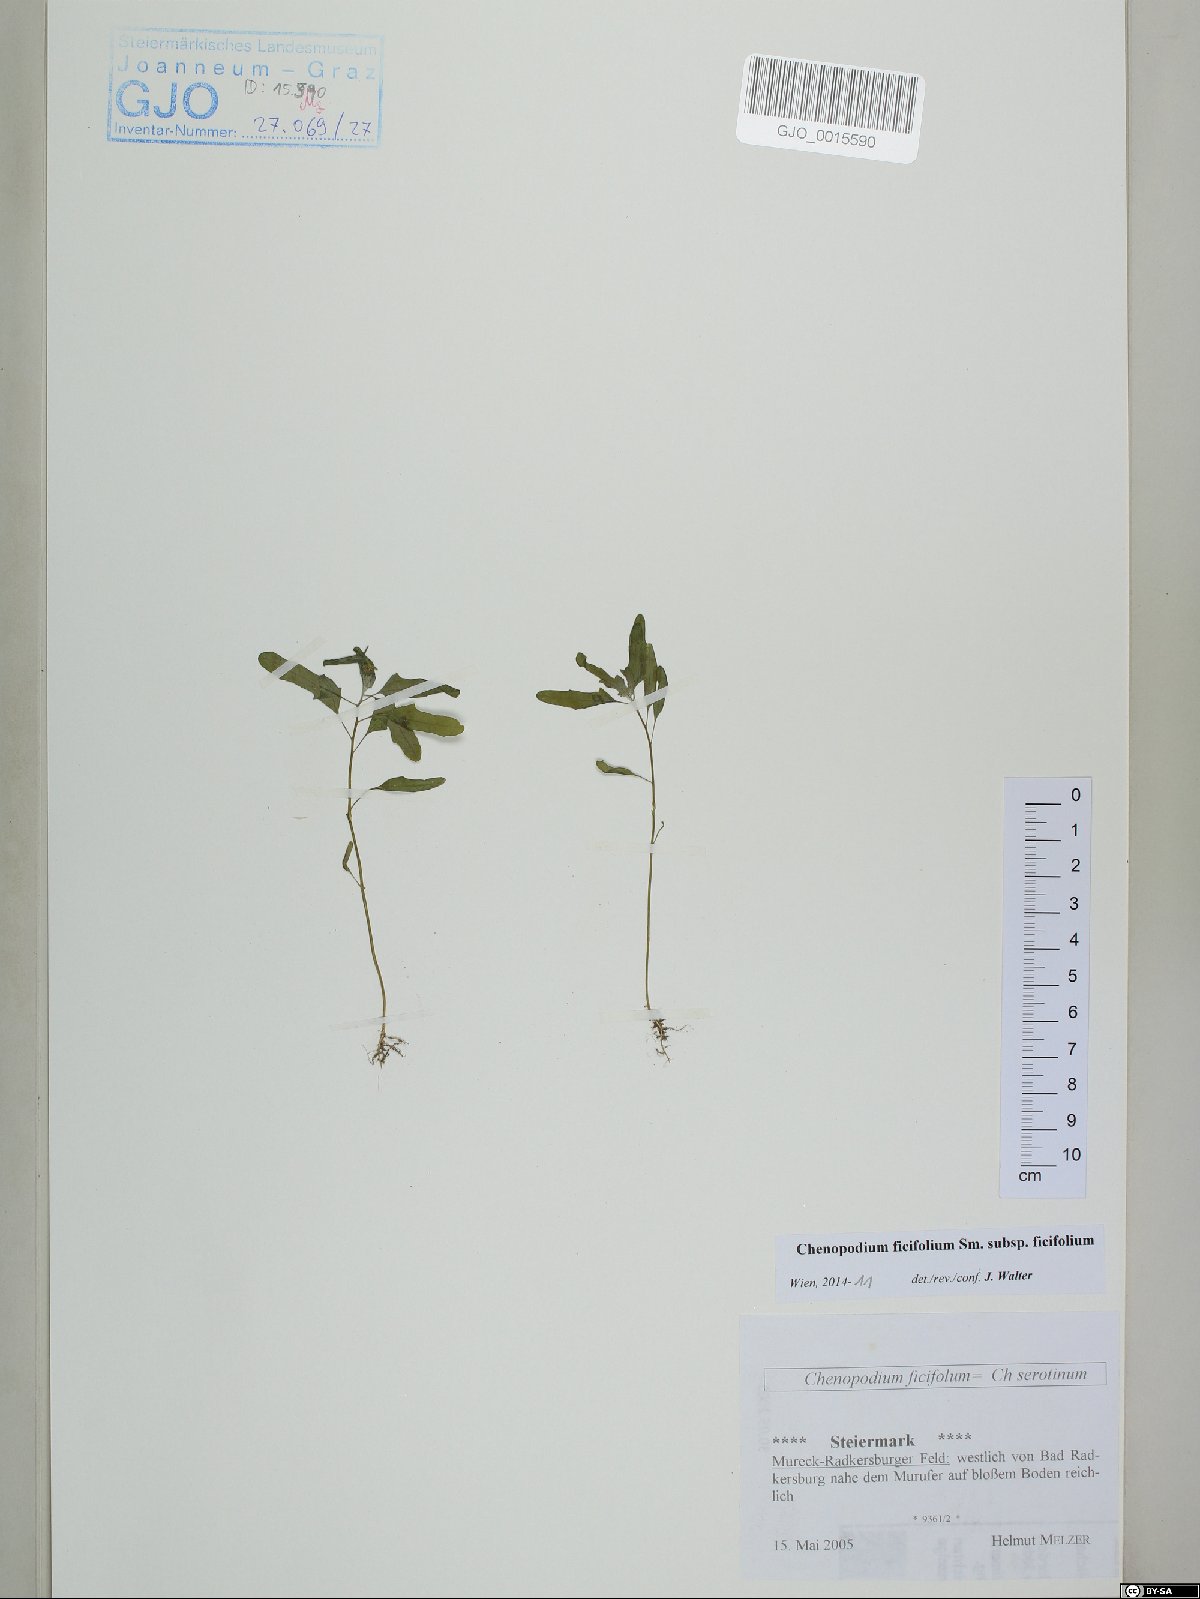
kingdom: Plantae
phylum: Tracheophyta
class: Magnoliopsida
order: Caryophyllales
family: Amaranthaceae
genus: Chenopodium
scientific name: Chenopodium ficifolium
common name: Fig-leaved goosefoot
